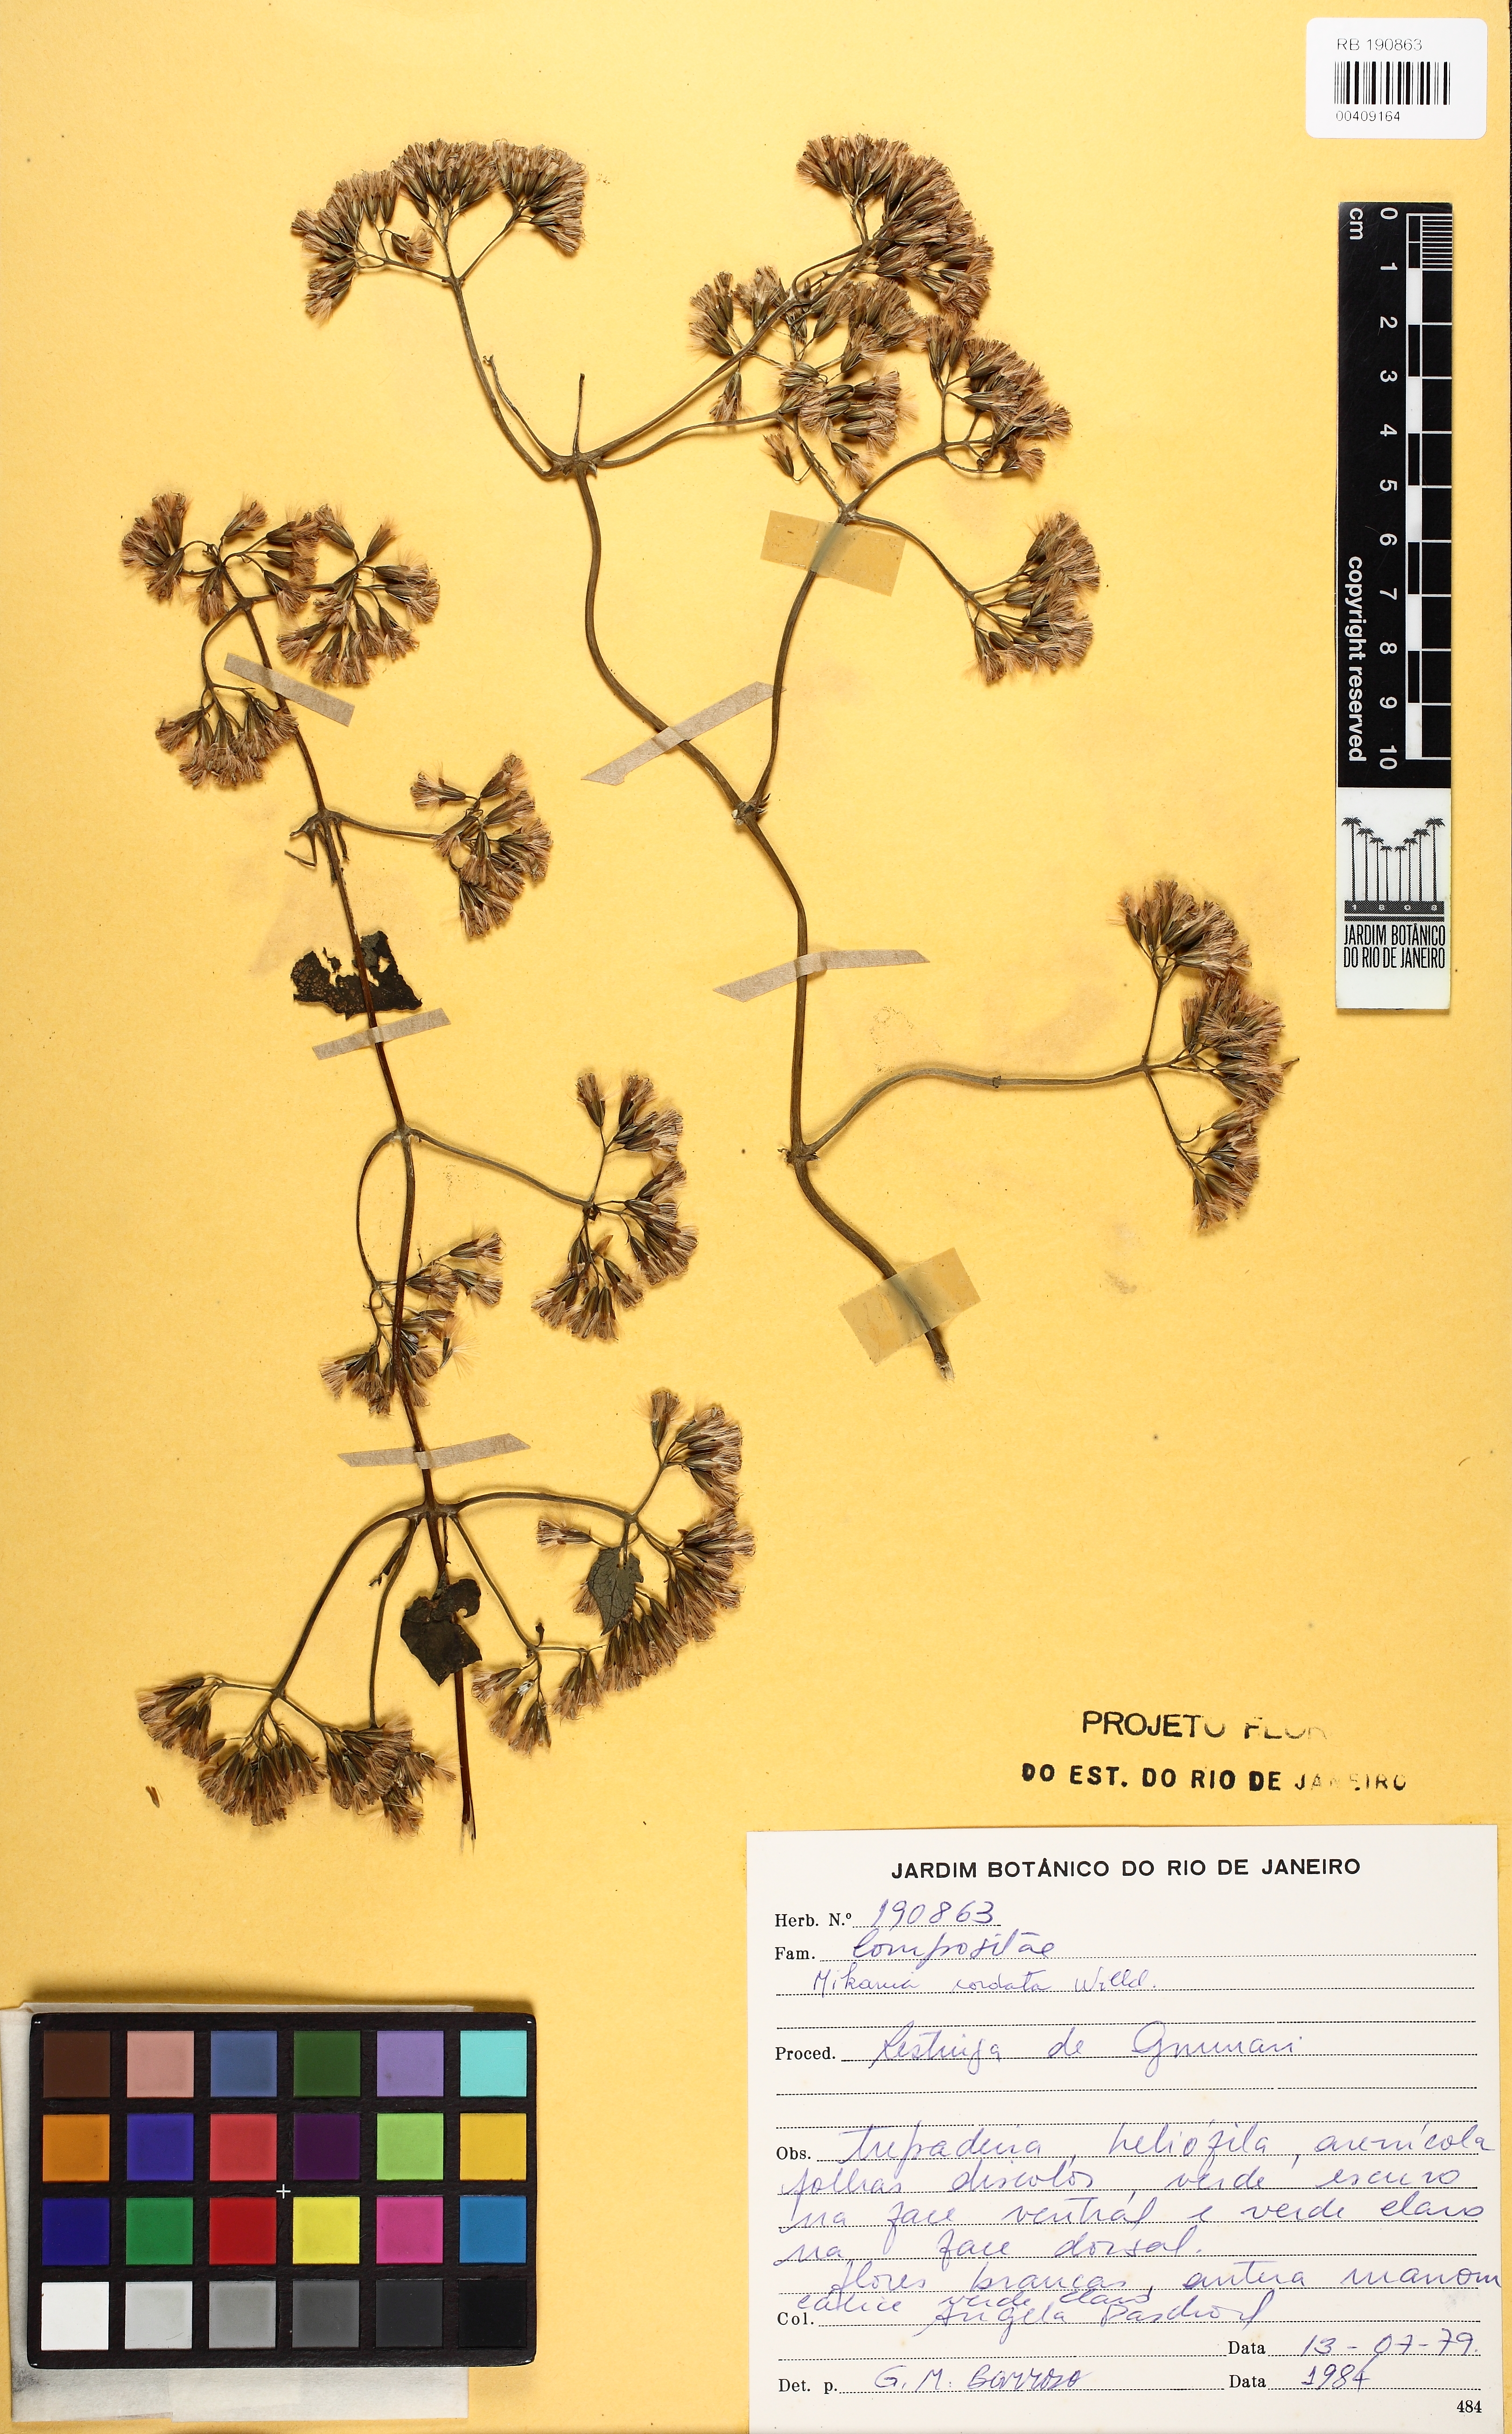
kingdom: Plantae
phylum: Tracheophyta
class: Magnoliopsida
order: Asterales
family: Asteraceae
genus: Mikania
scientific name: Mikania cordata
